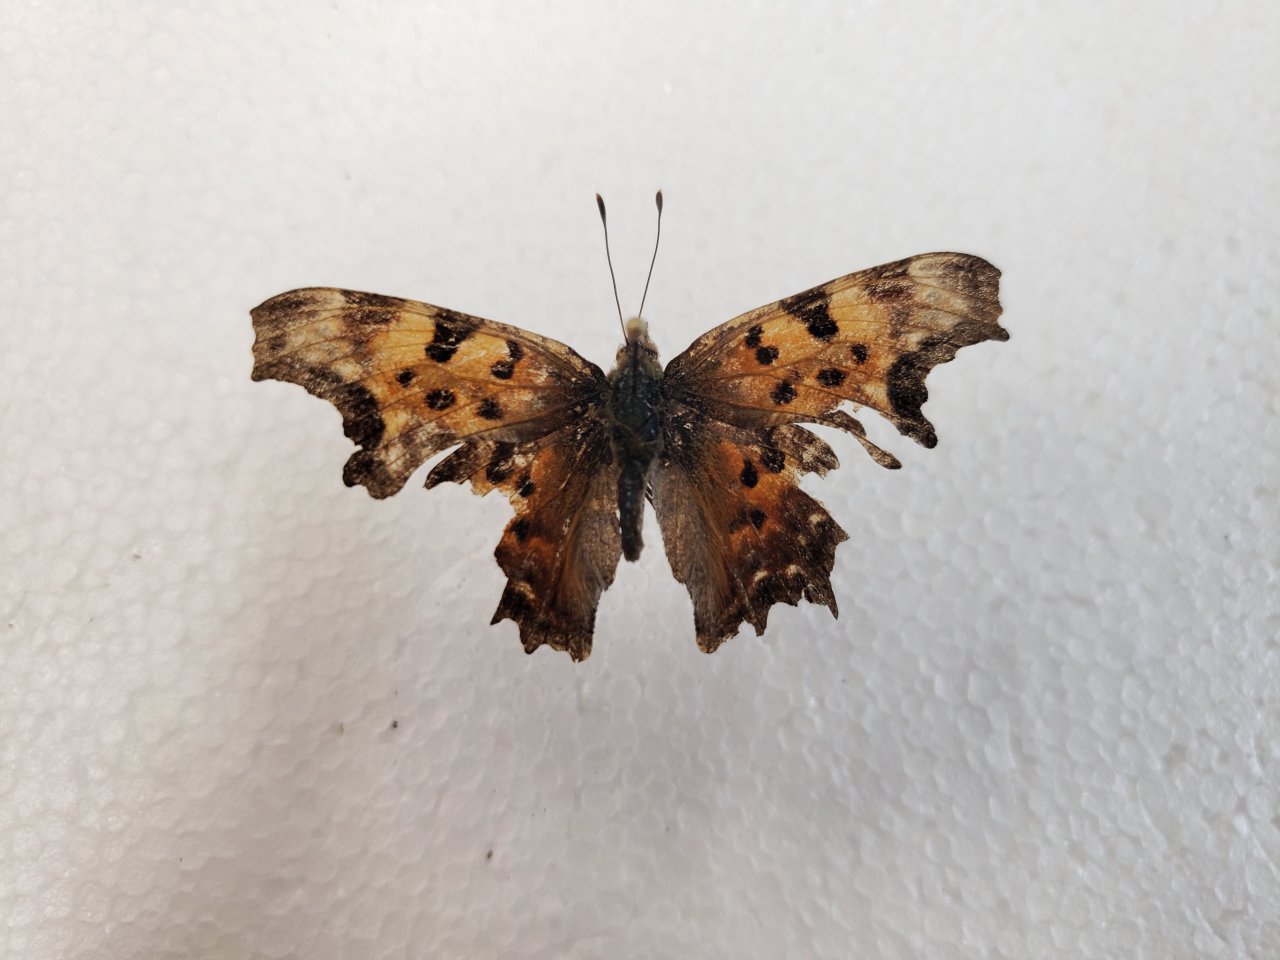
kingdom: Animalia
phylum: Arthropoda
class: Insecta
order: Lepidoptera
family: Nymphalidae
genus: Polygonia
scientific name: Polygonia faunus
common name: Green Comma
